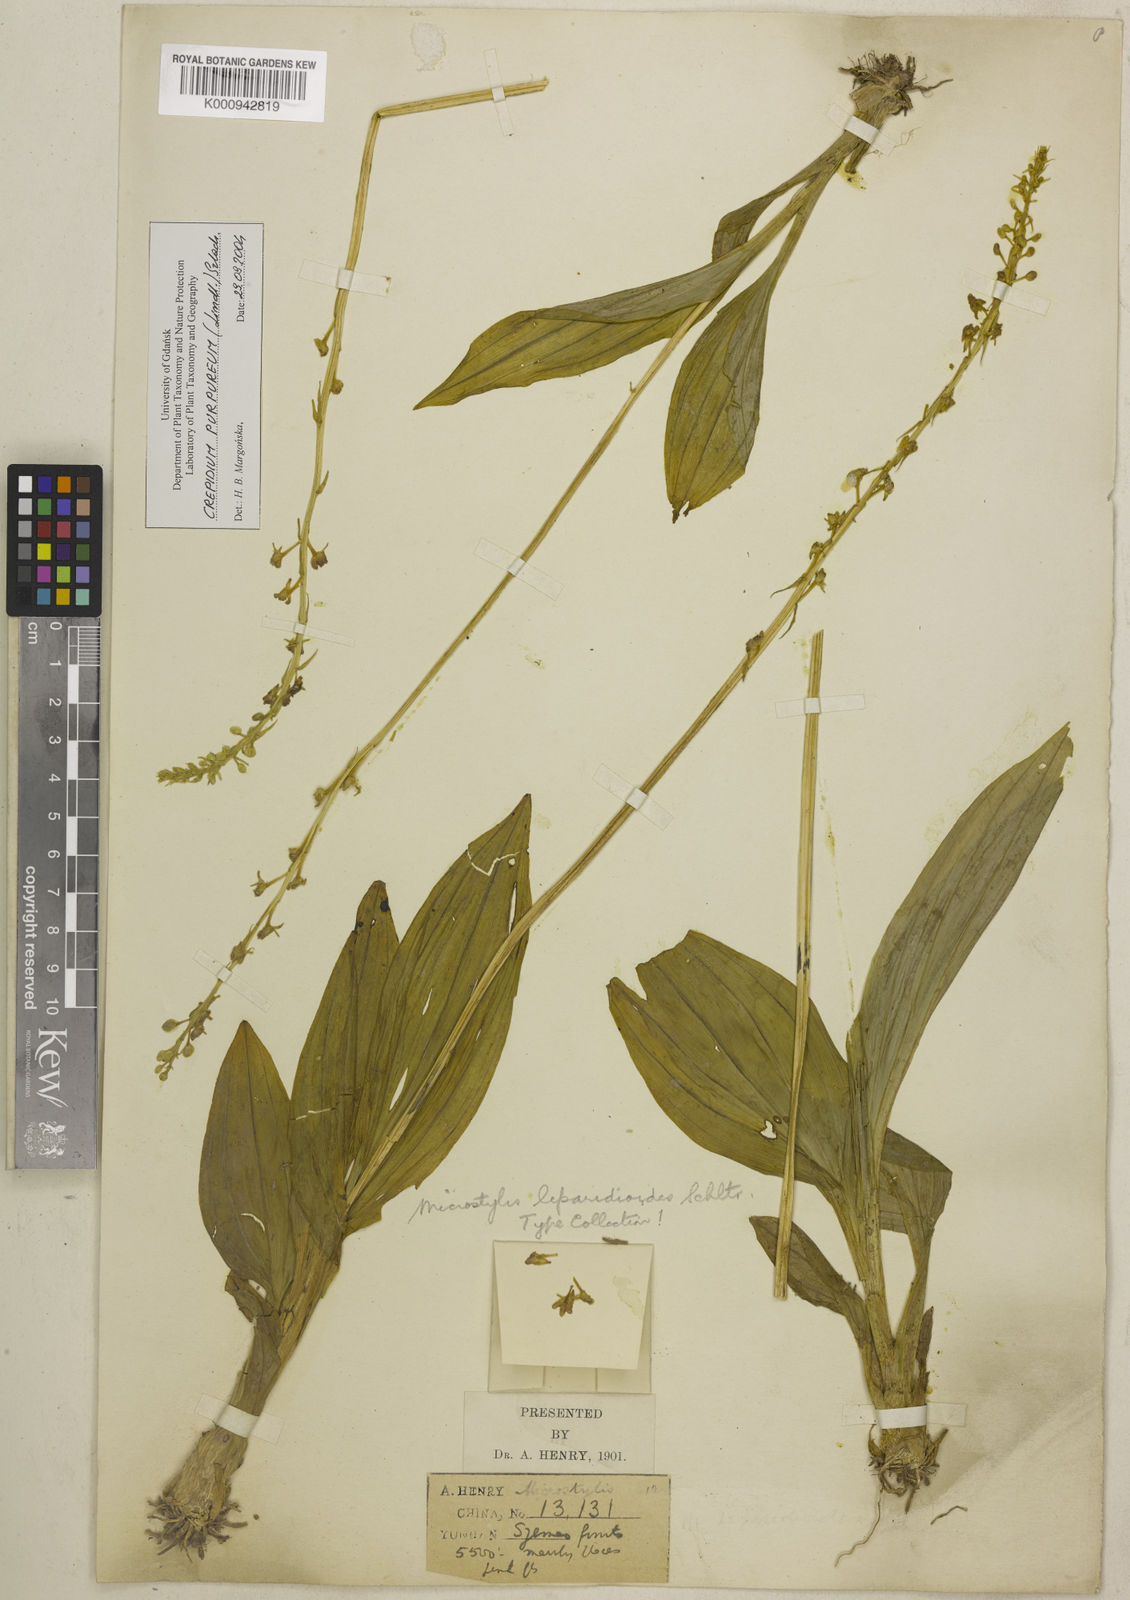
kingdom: Plantae
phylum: Tracheophyta
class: Liliopsida
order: Asparagales
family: Orchidaceae
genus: Crepidium
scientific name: Crepidium purpureum
